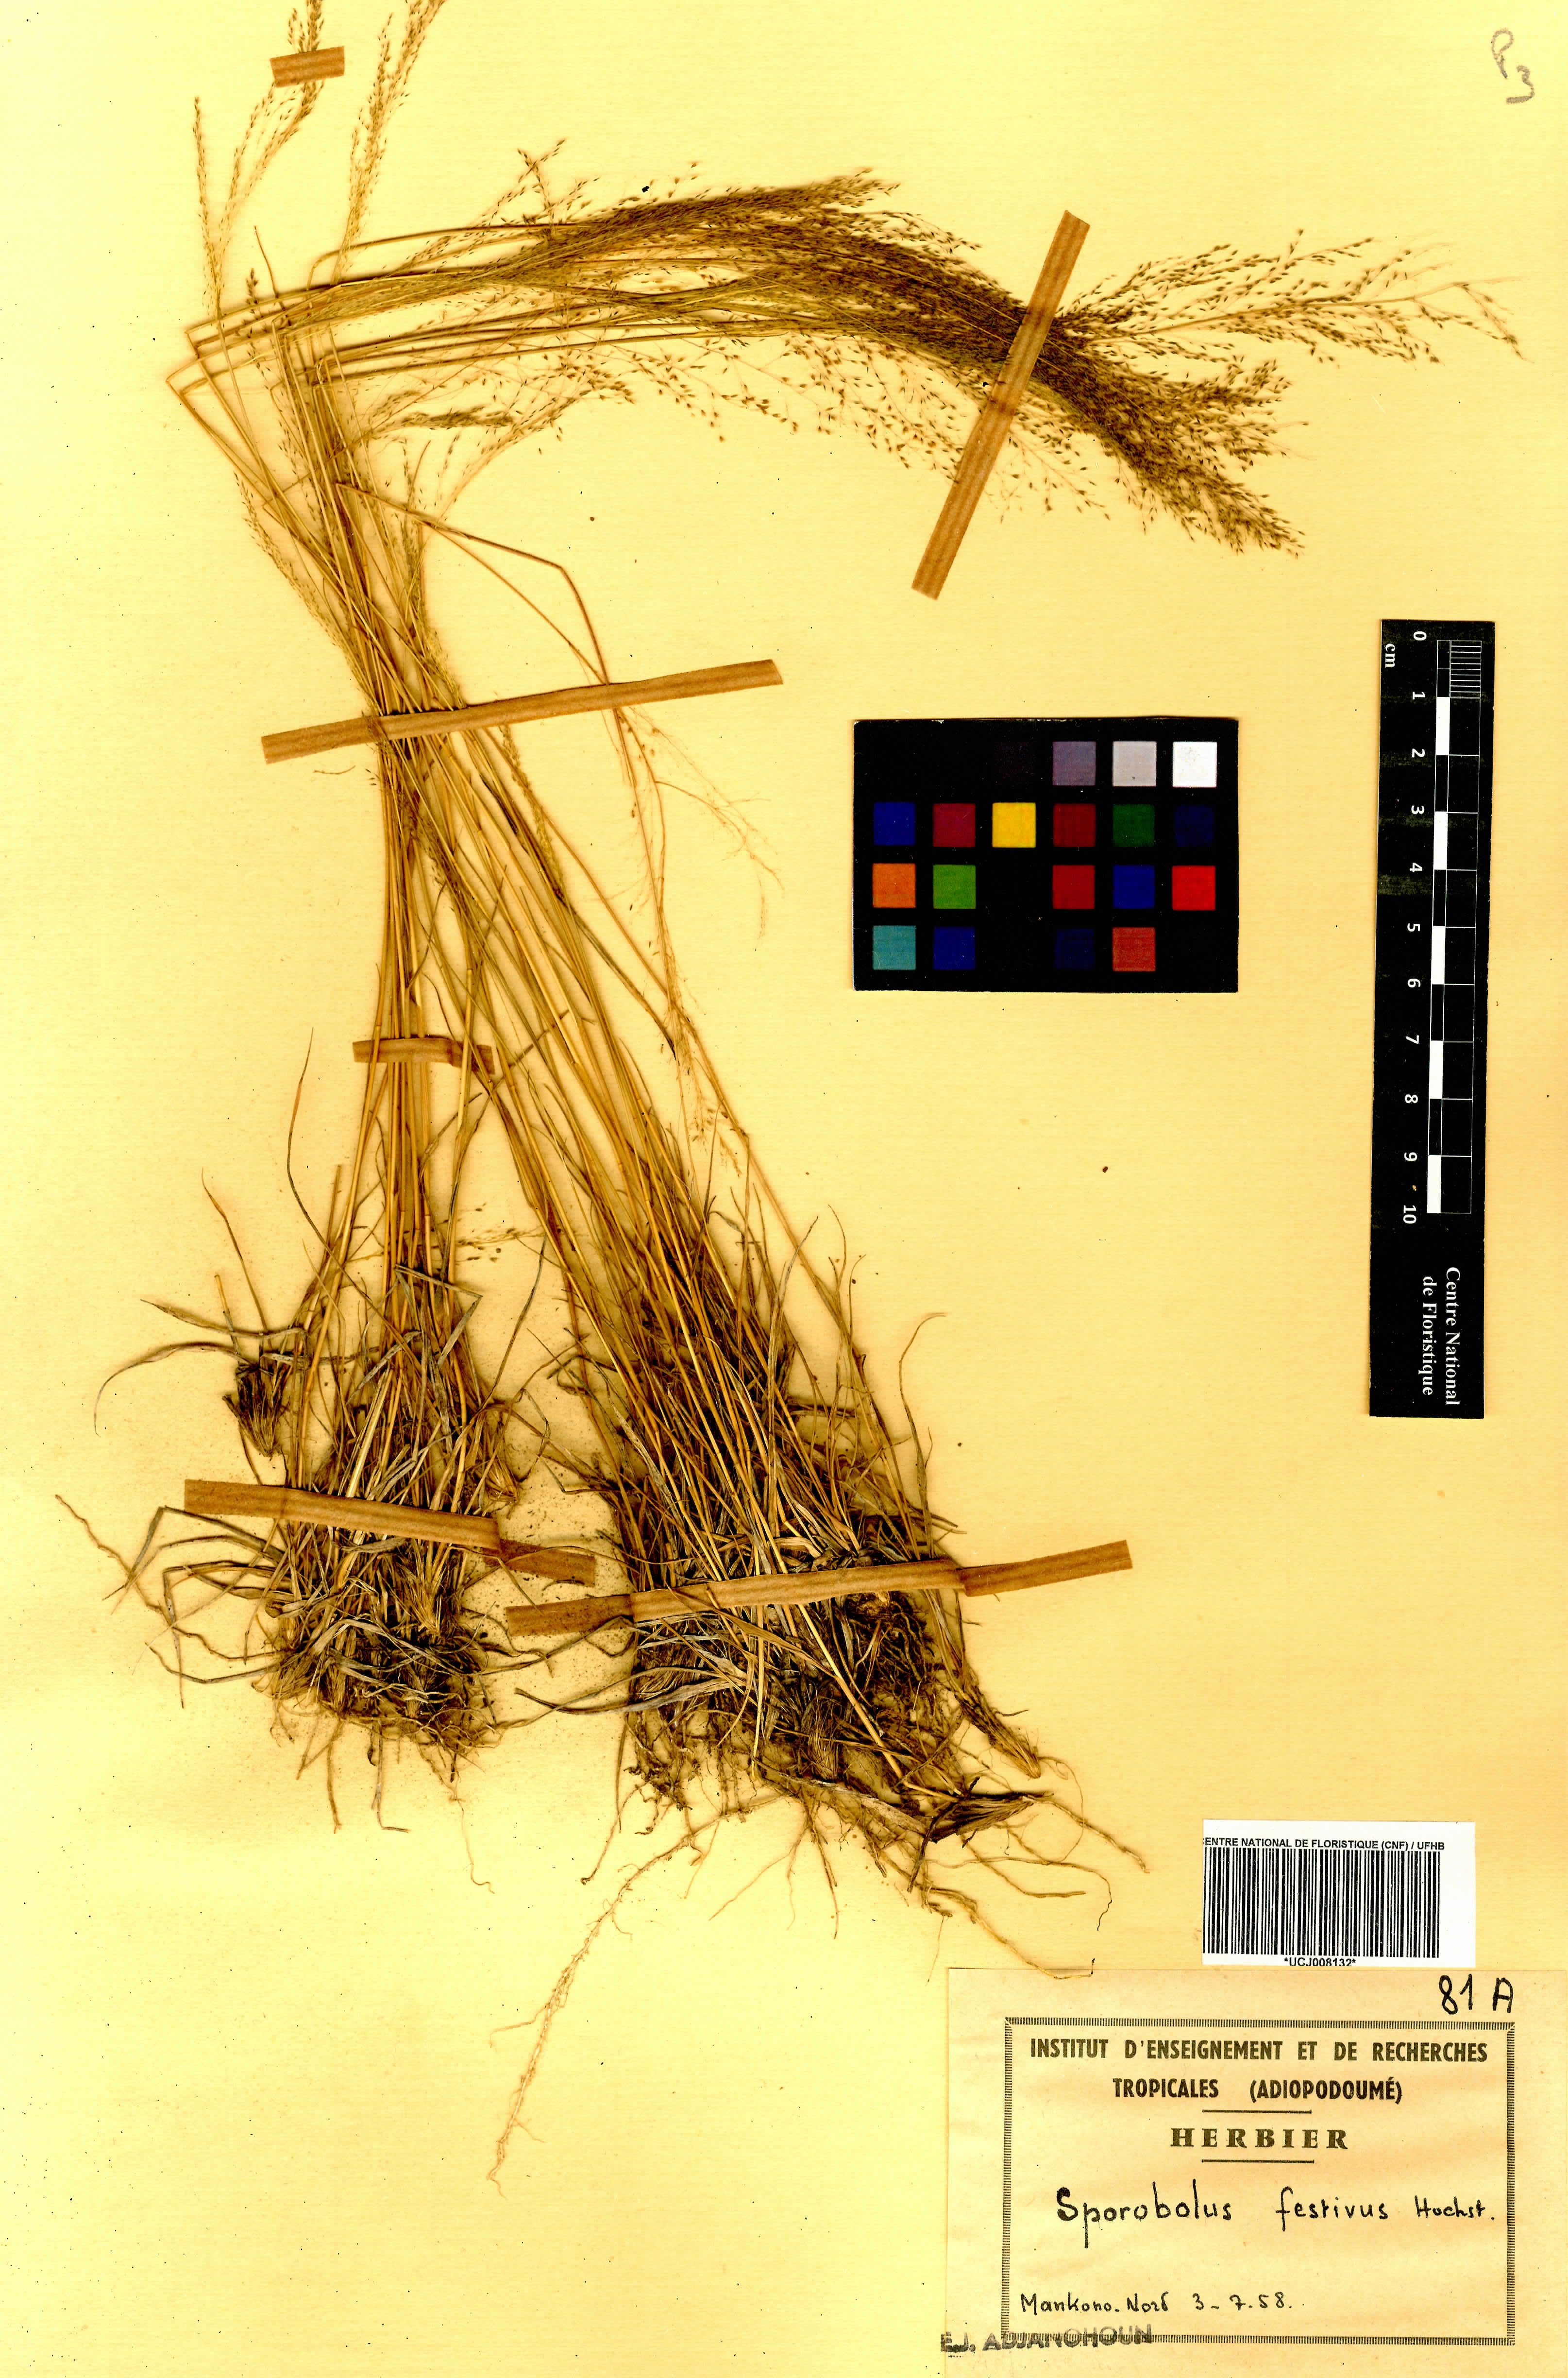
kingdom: Plantae
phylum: Tracheophyta
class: Liliopsida
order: Poales
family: Poaceae
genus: Sporobolus
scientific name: Sporobolus festivus
